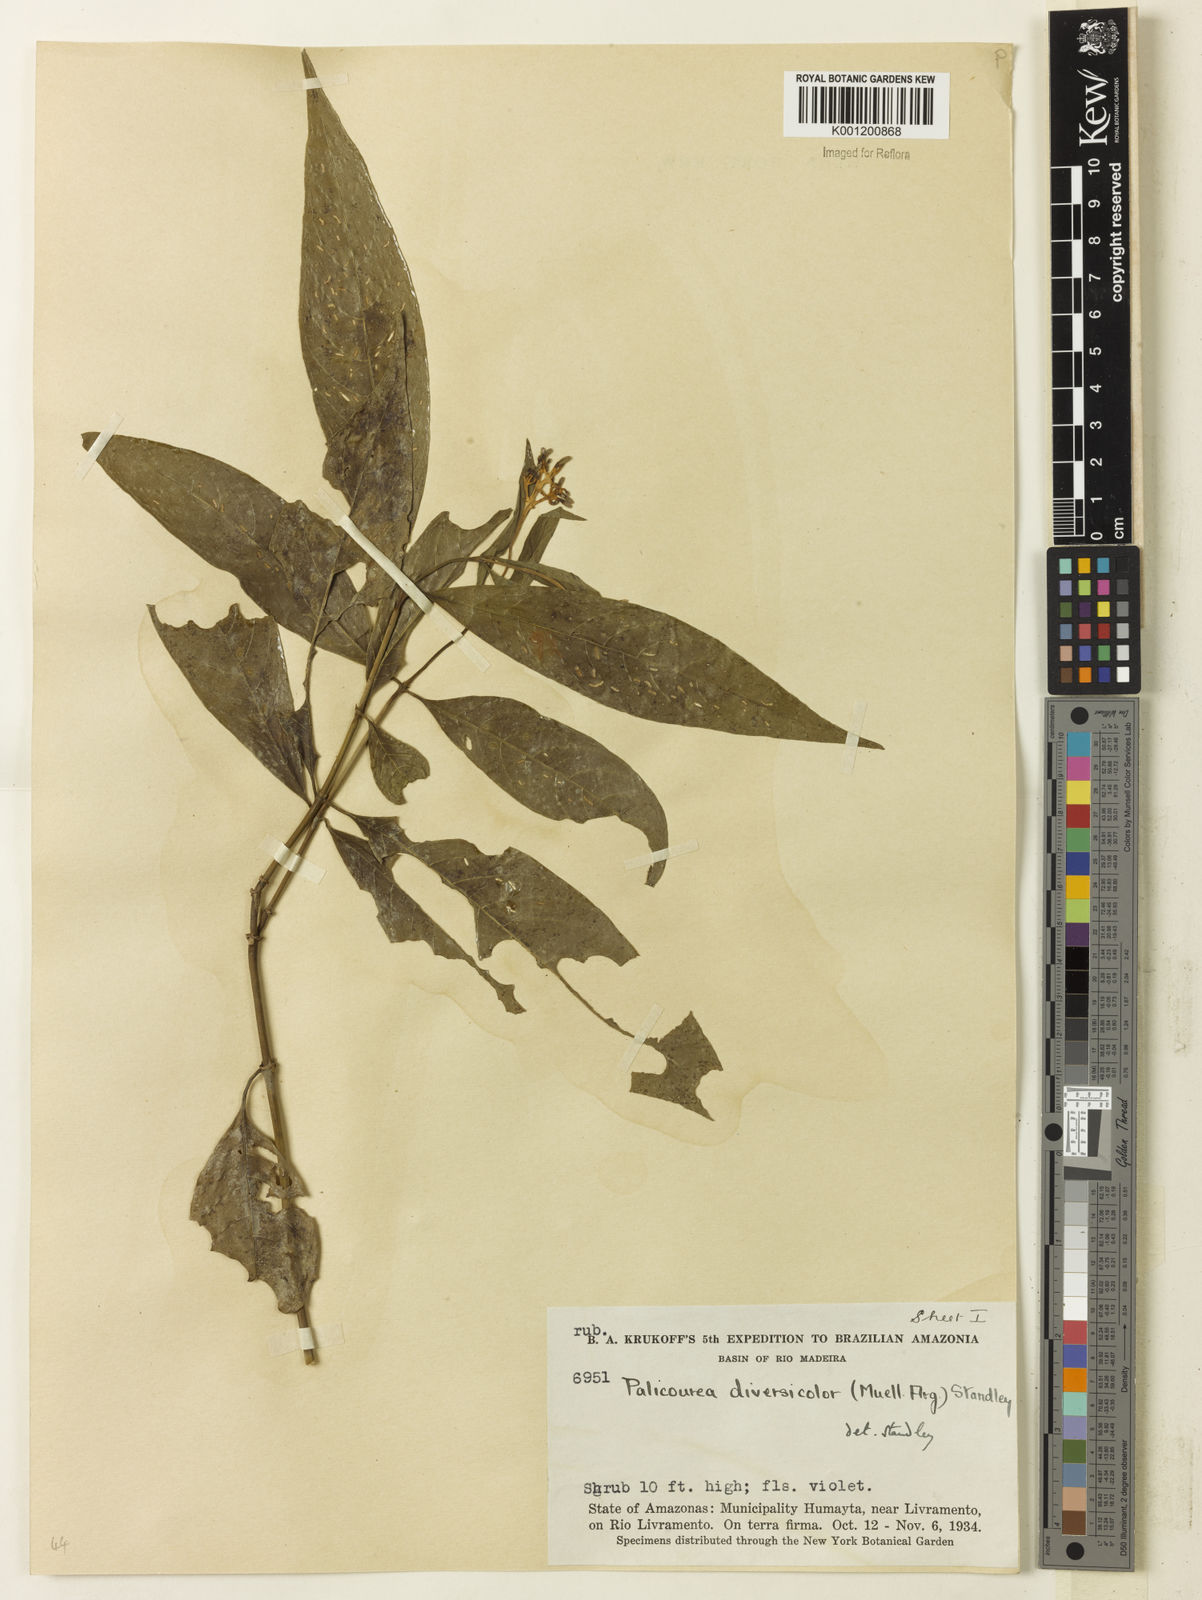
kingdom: Plantae
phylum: Tracheophyta
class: Magnoliopsida
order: Gentianales
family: Rubiaceae
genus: Palicourea
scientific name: Palicourea longiflora
